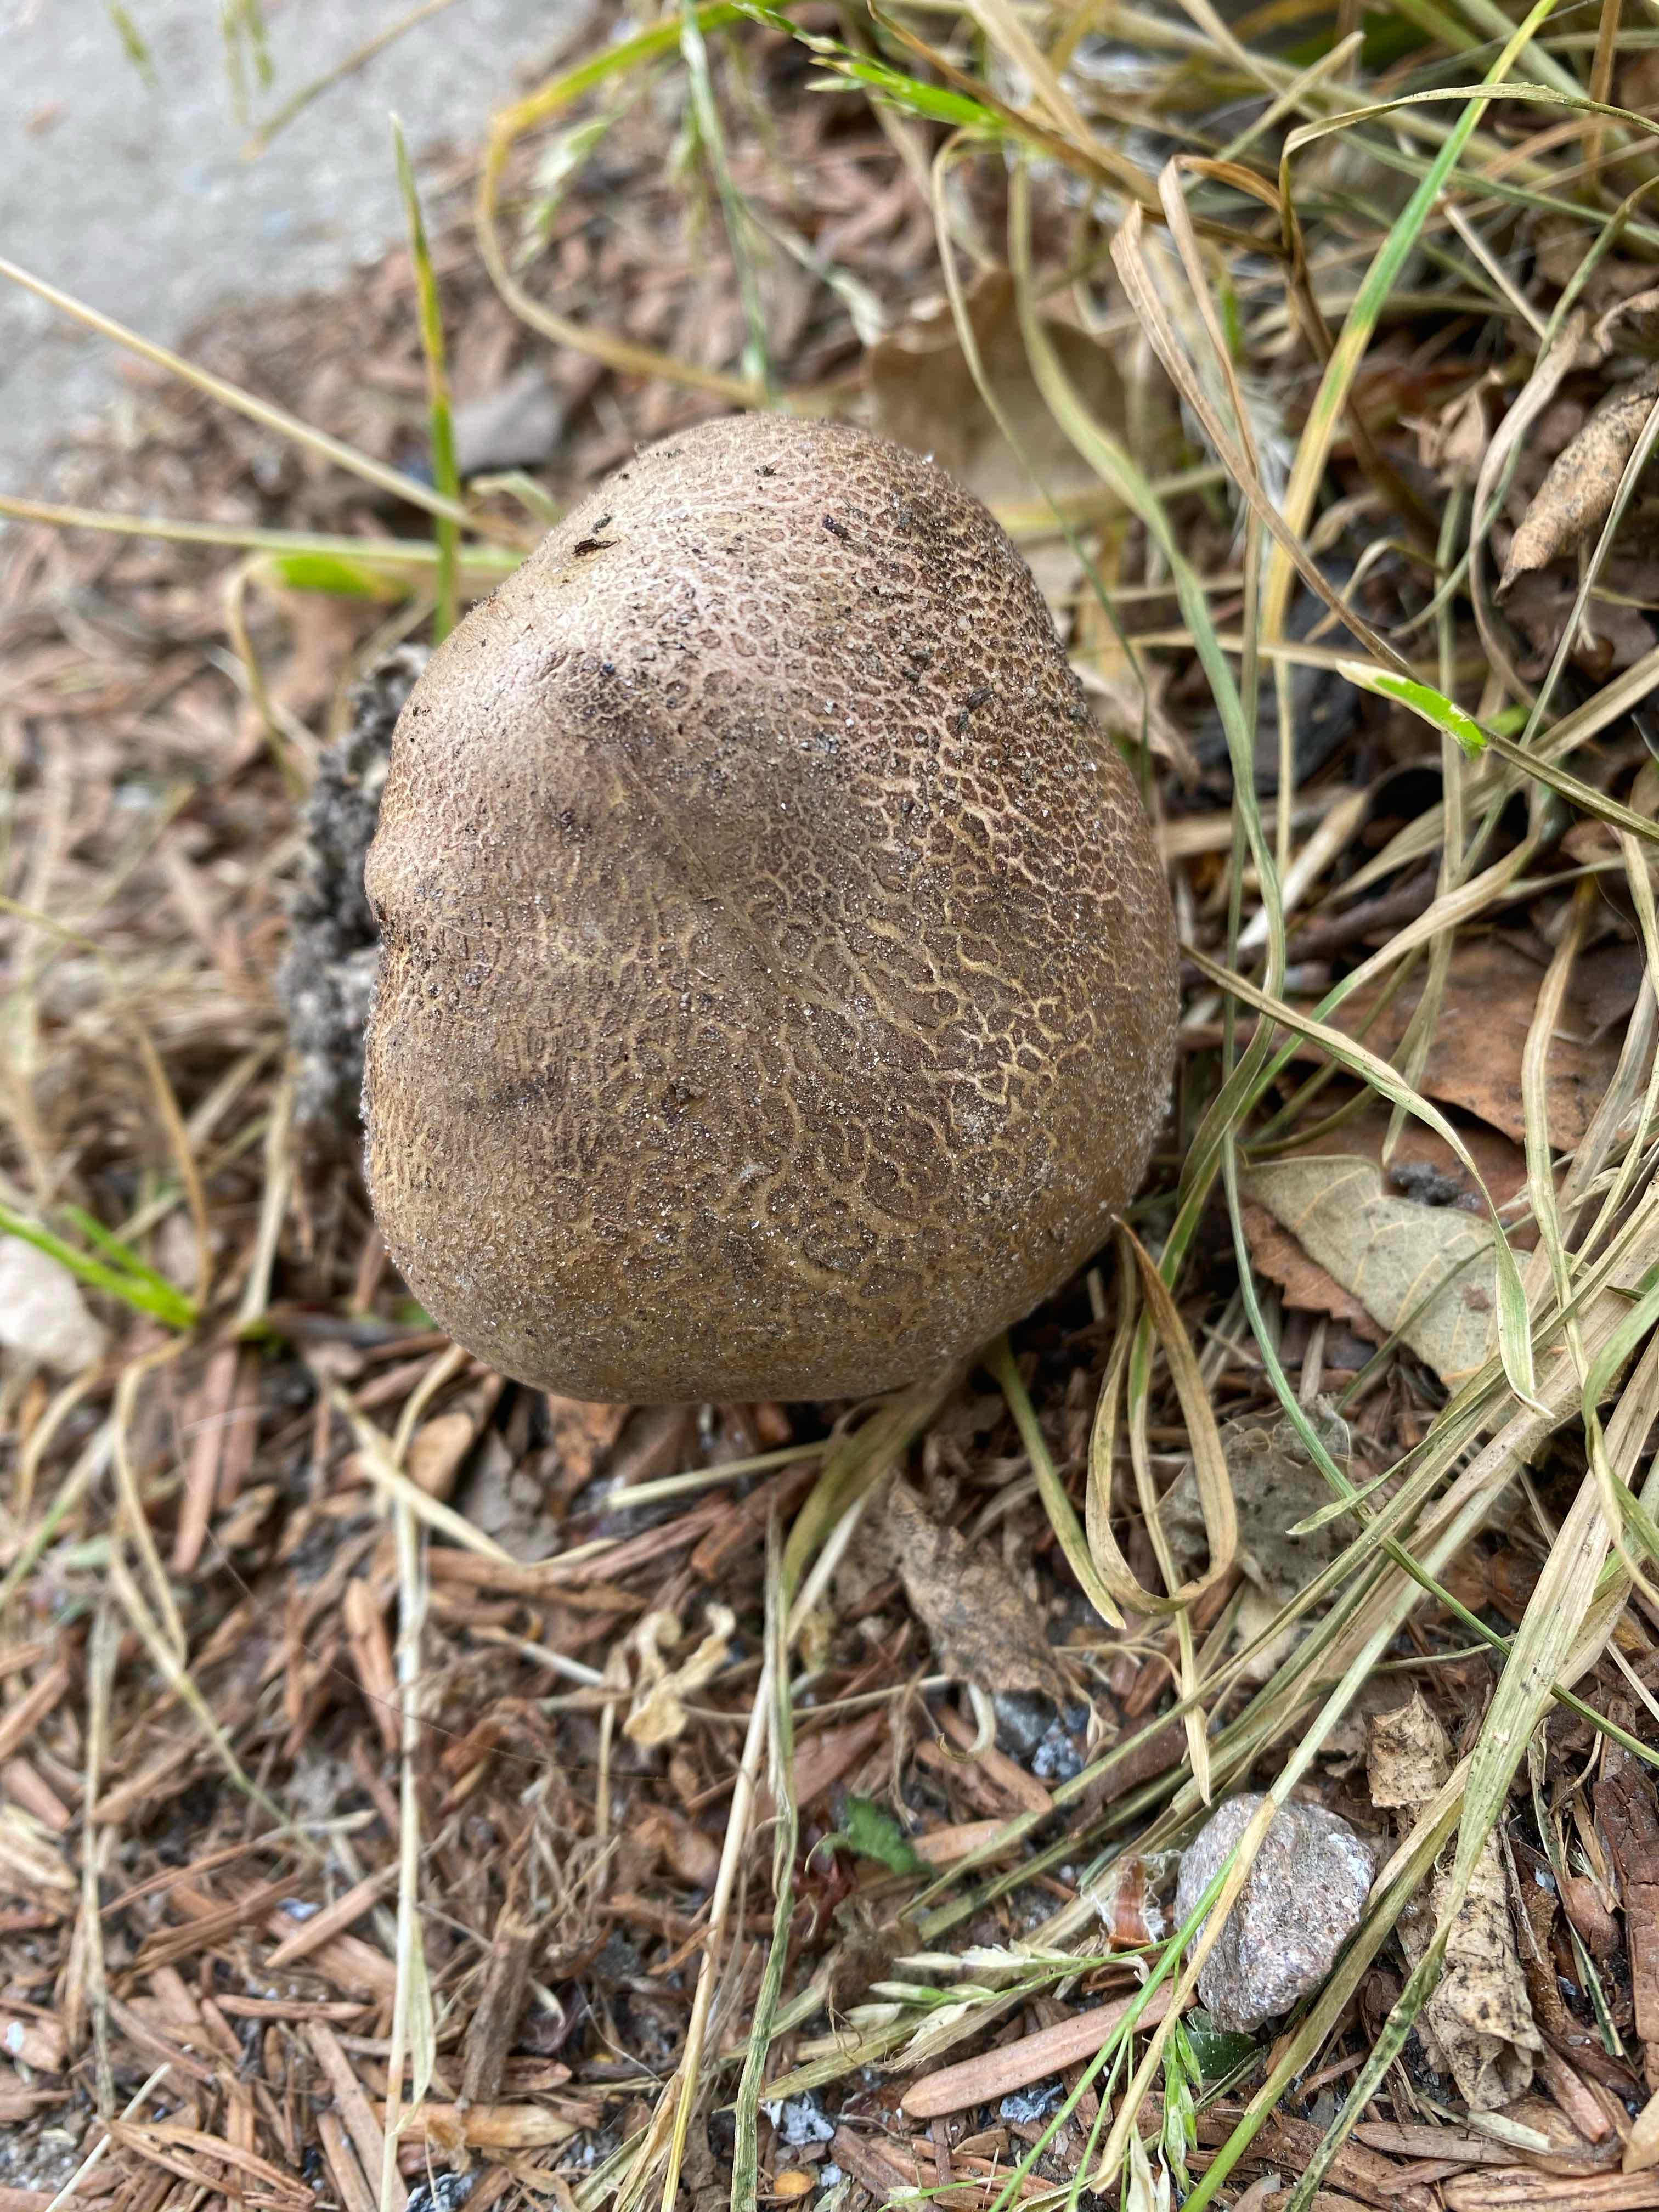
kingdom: Fungi
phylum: Basidiomycota
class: Agaricomycetes
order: Boletales
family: Sclerodermataceae
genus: Scleroderma
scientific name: Scleroderma verrucosum
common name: stilket bruskbold
